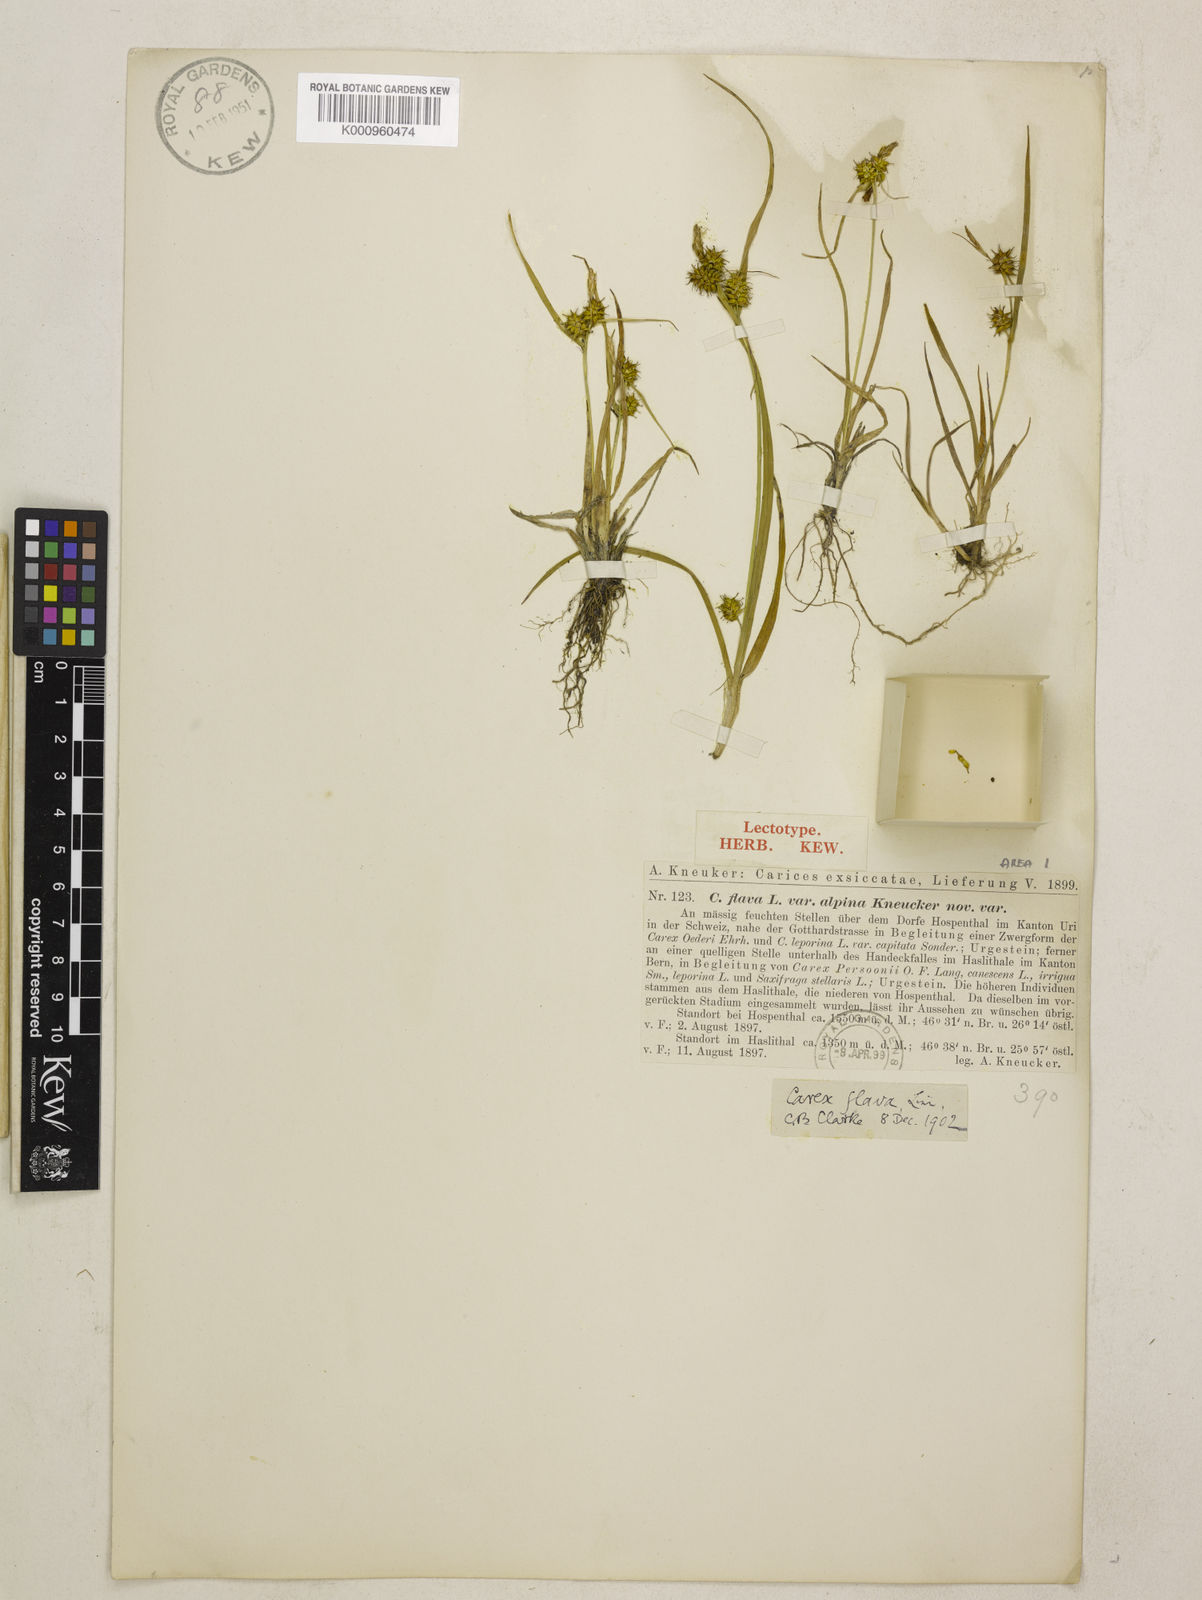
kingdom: Plantae
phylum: Tracheophyta
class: Liliopsida
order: Poales
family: Cyperaceae
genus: Carex
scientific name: Carex flava
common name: Large yellow-sedge
